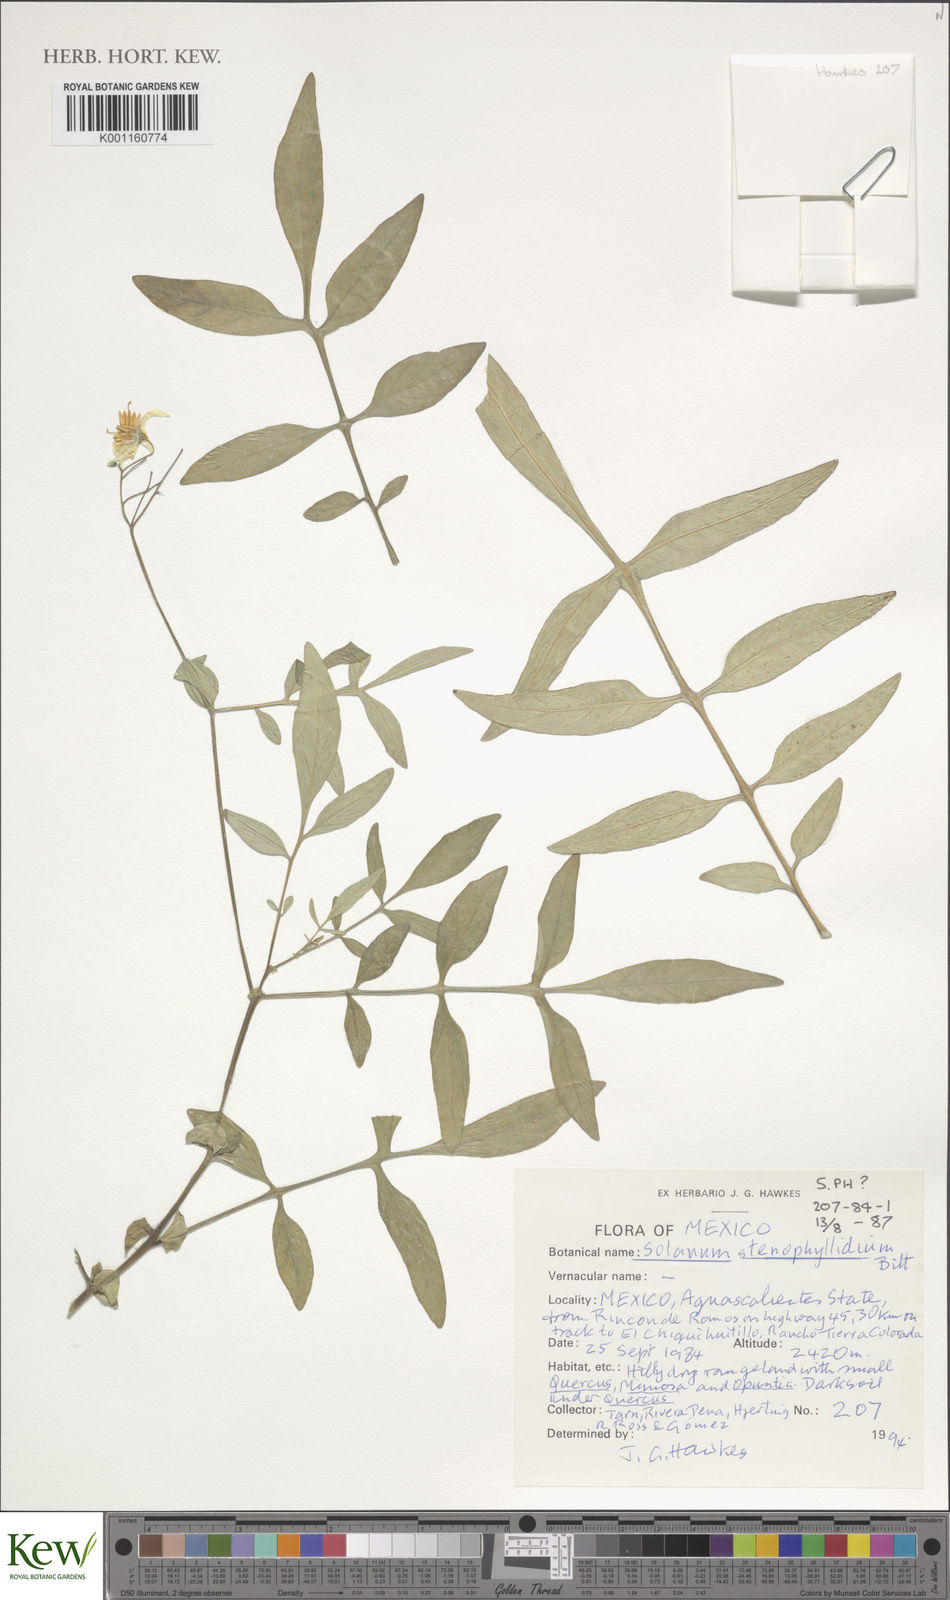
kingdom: Plantae
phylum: Tracheophyta
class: Magnoliopsida
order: Solanales
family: Solanaceae
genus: Solanum
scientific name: Solanum stenophyllidium
